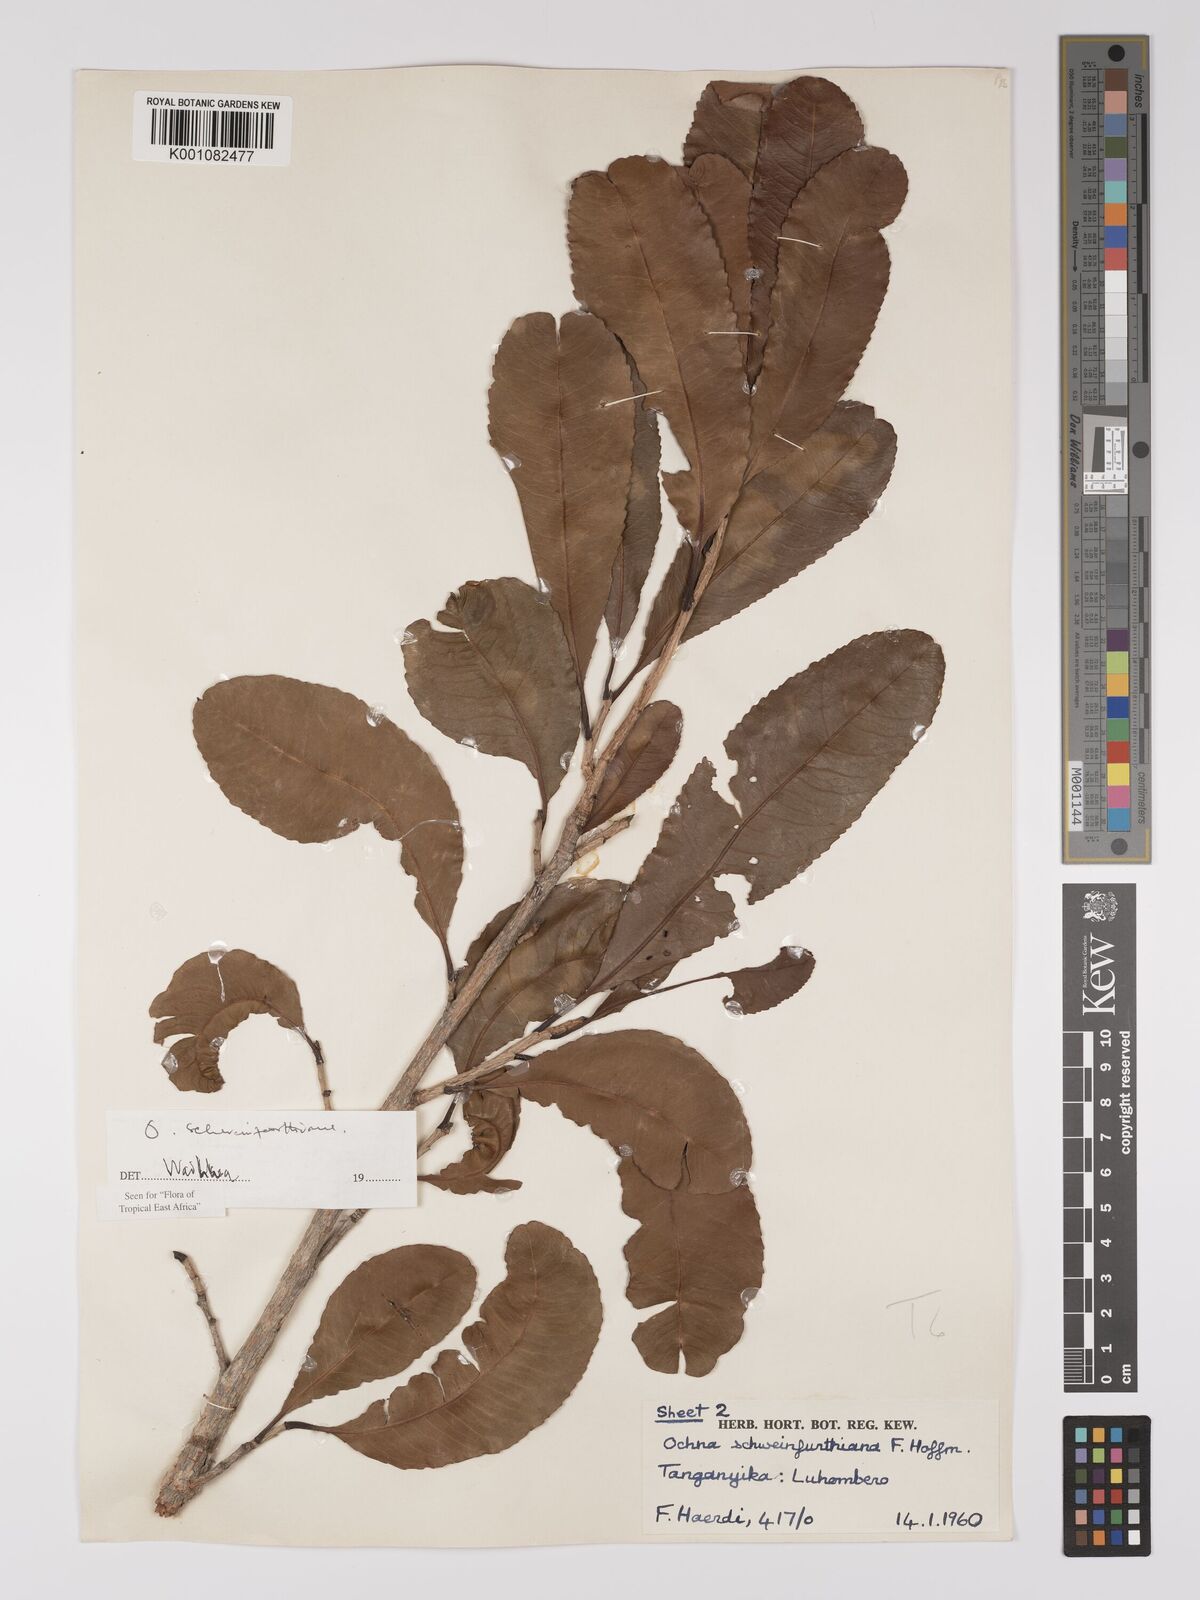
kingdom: Plantae
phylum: Tracheophyta
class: Magnoliopsida
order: Malpighiales
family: Ochnaceae
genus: Ochna
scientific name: Ochna schweinfurthiana
